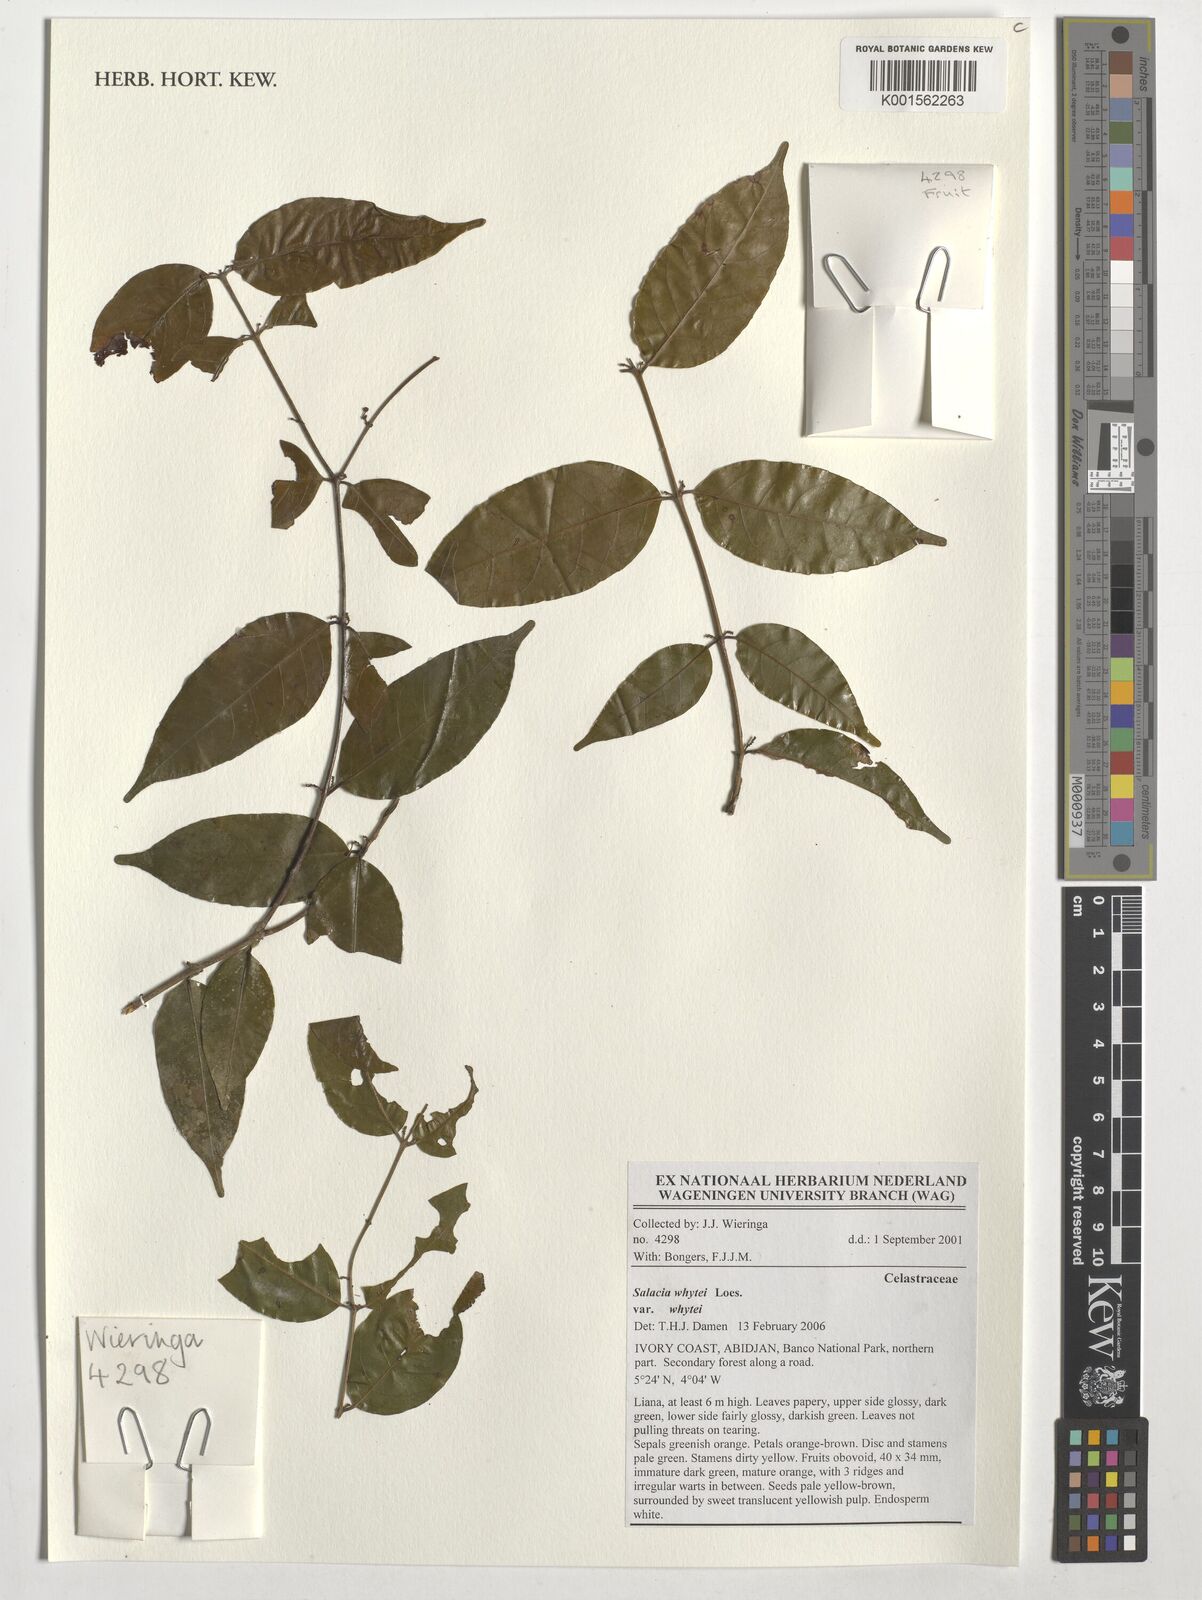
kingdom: Plantae
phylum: Tracheophyta
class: Magnoliopsida
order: Celastrales
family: Celastraceae
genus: Salacia
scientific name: Salacia whytei
